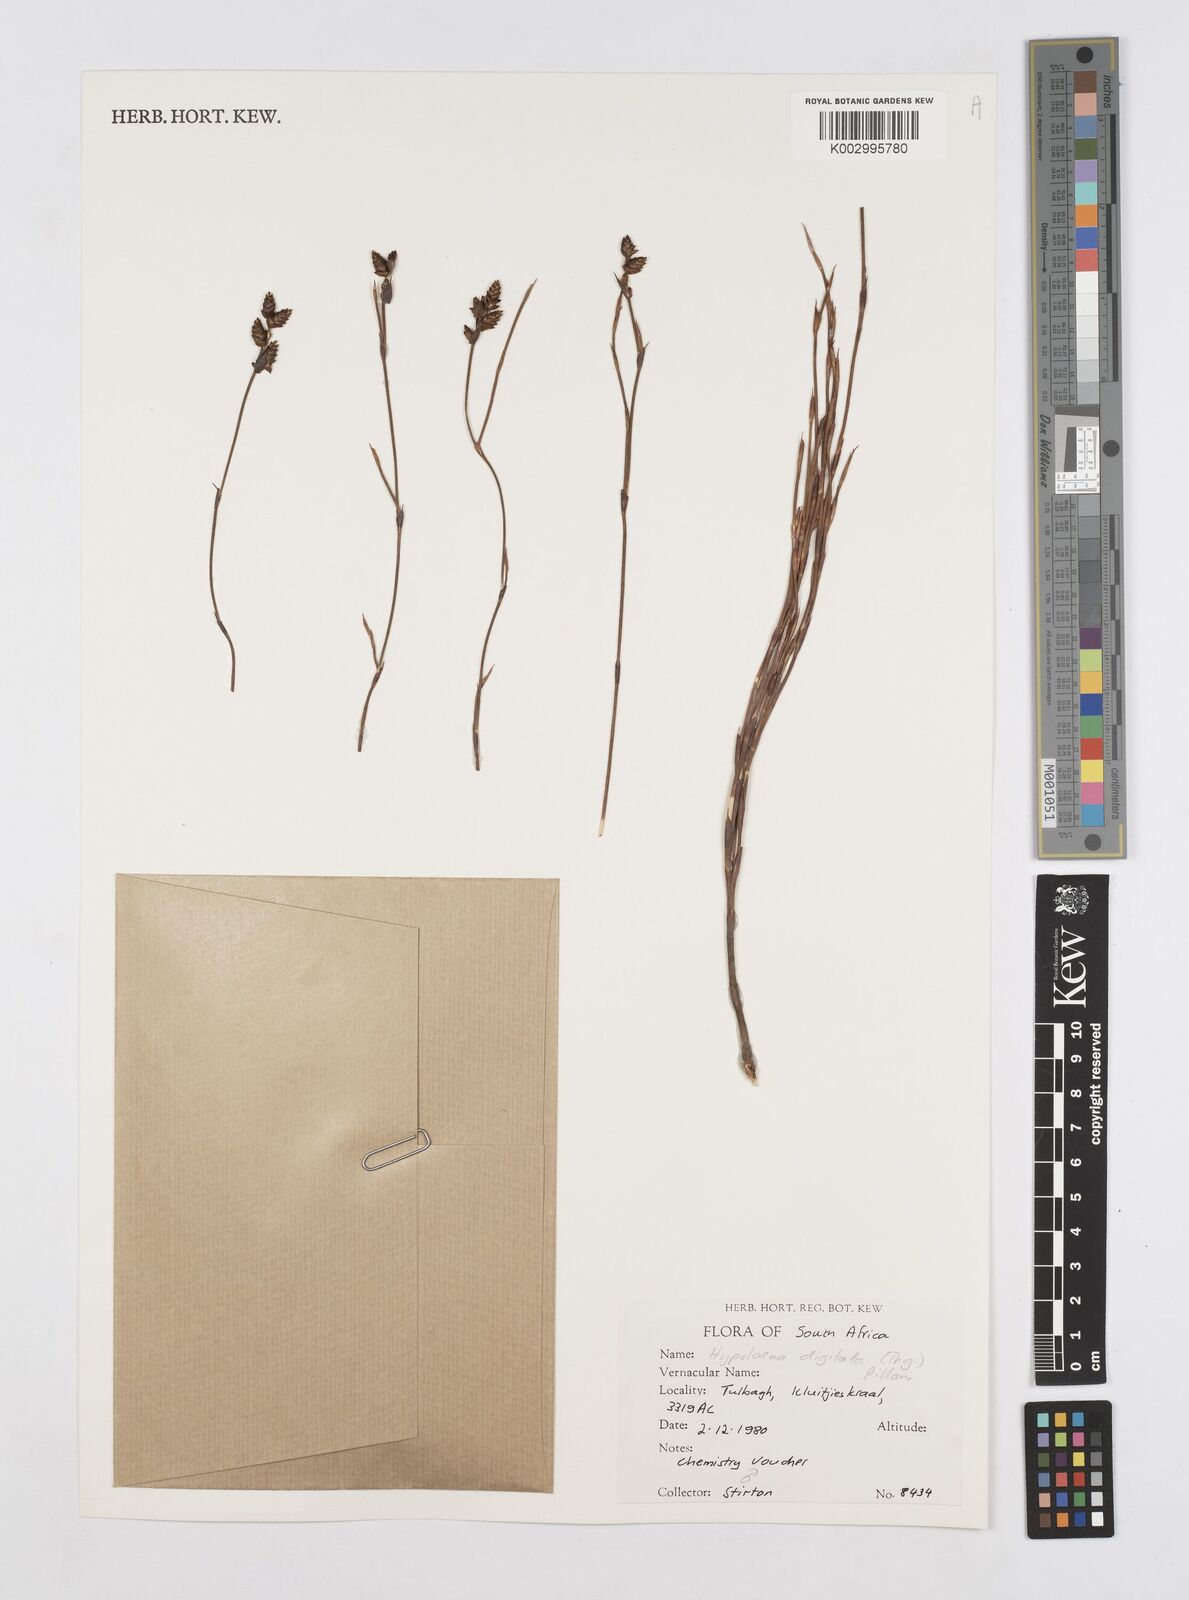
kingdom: Plantae
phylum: Tracheophyta
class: Liliopsida
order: Poales
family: Restionaceae
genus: Mastersiella
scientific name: Mastersiella digitata
